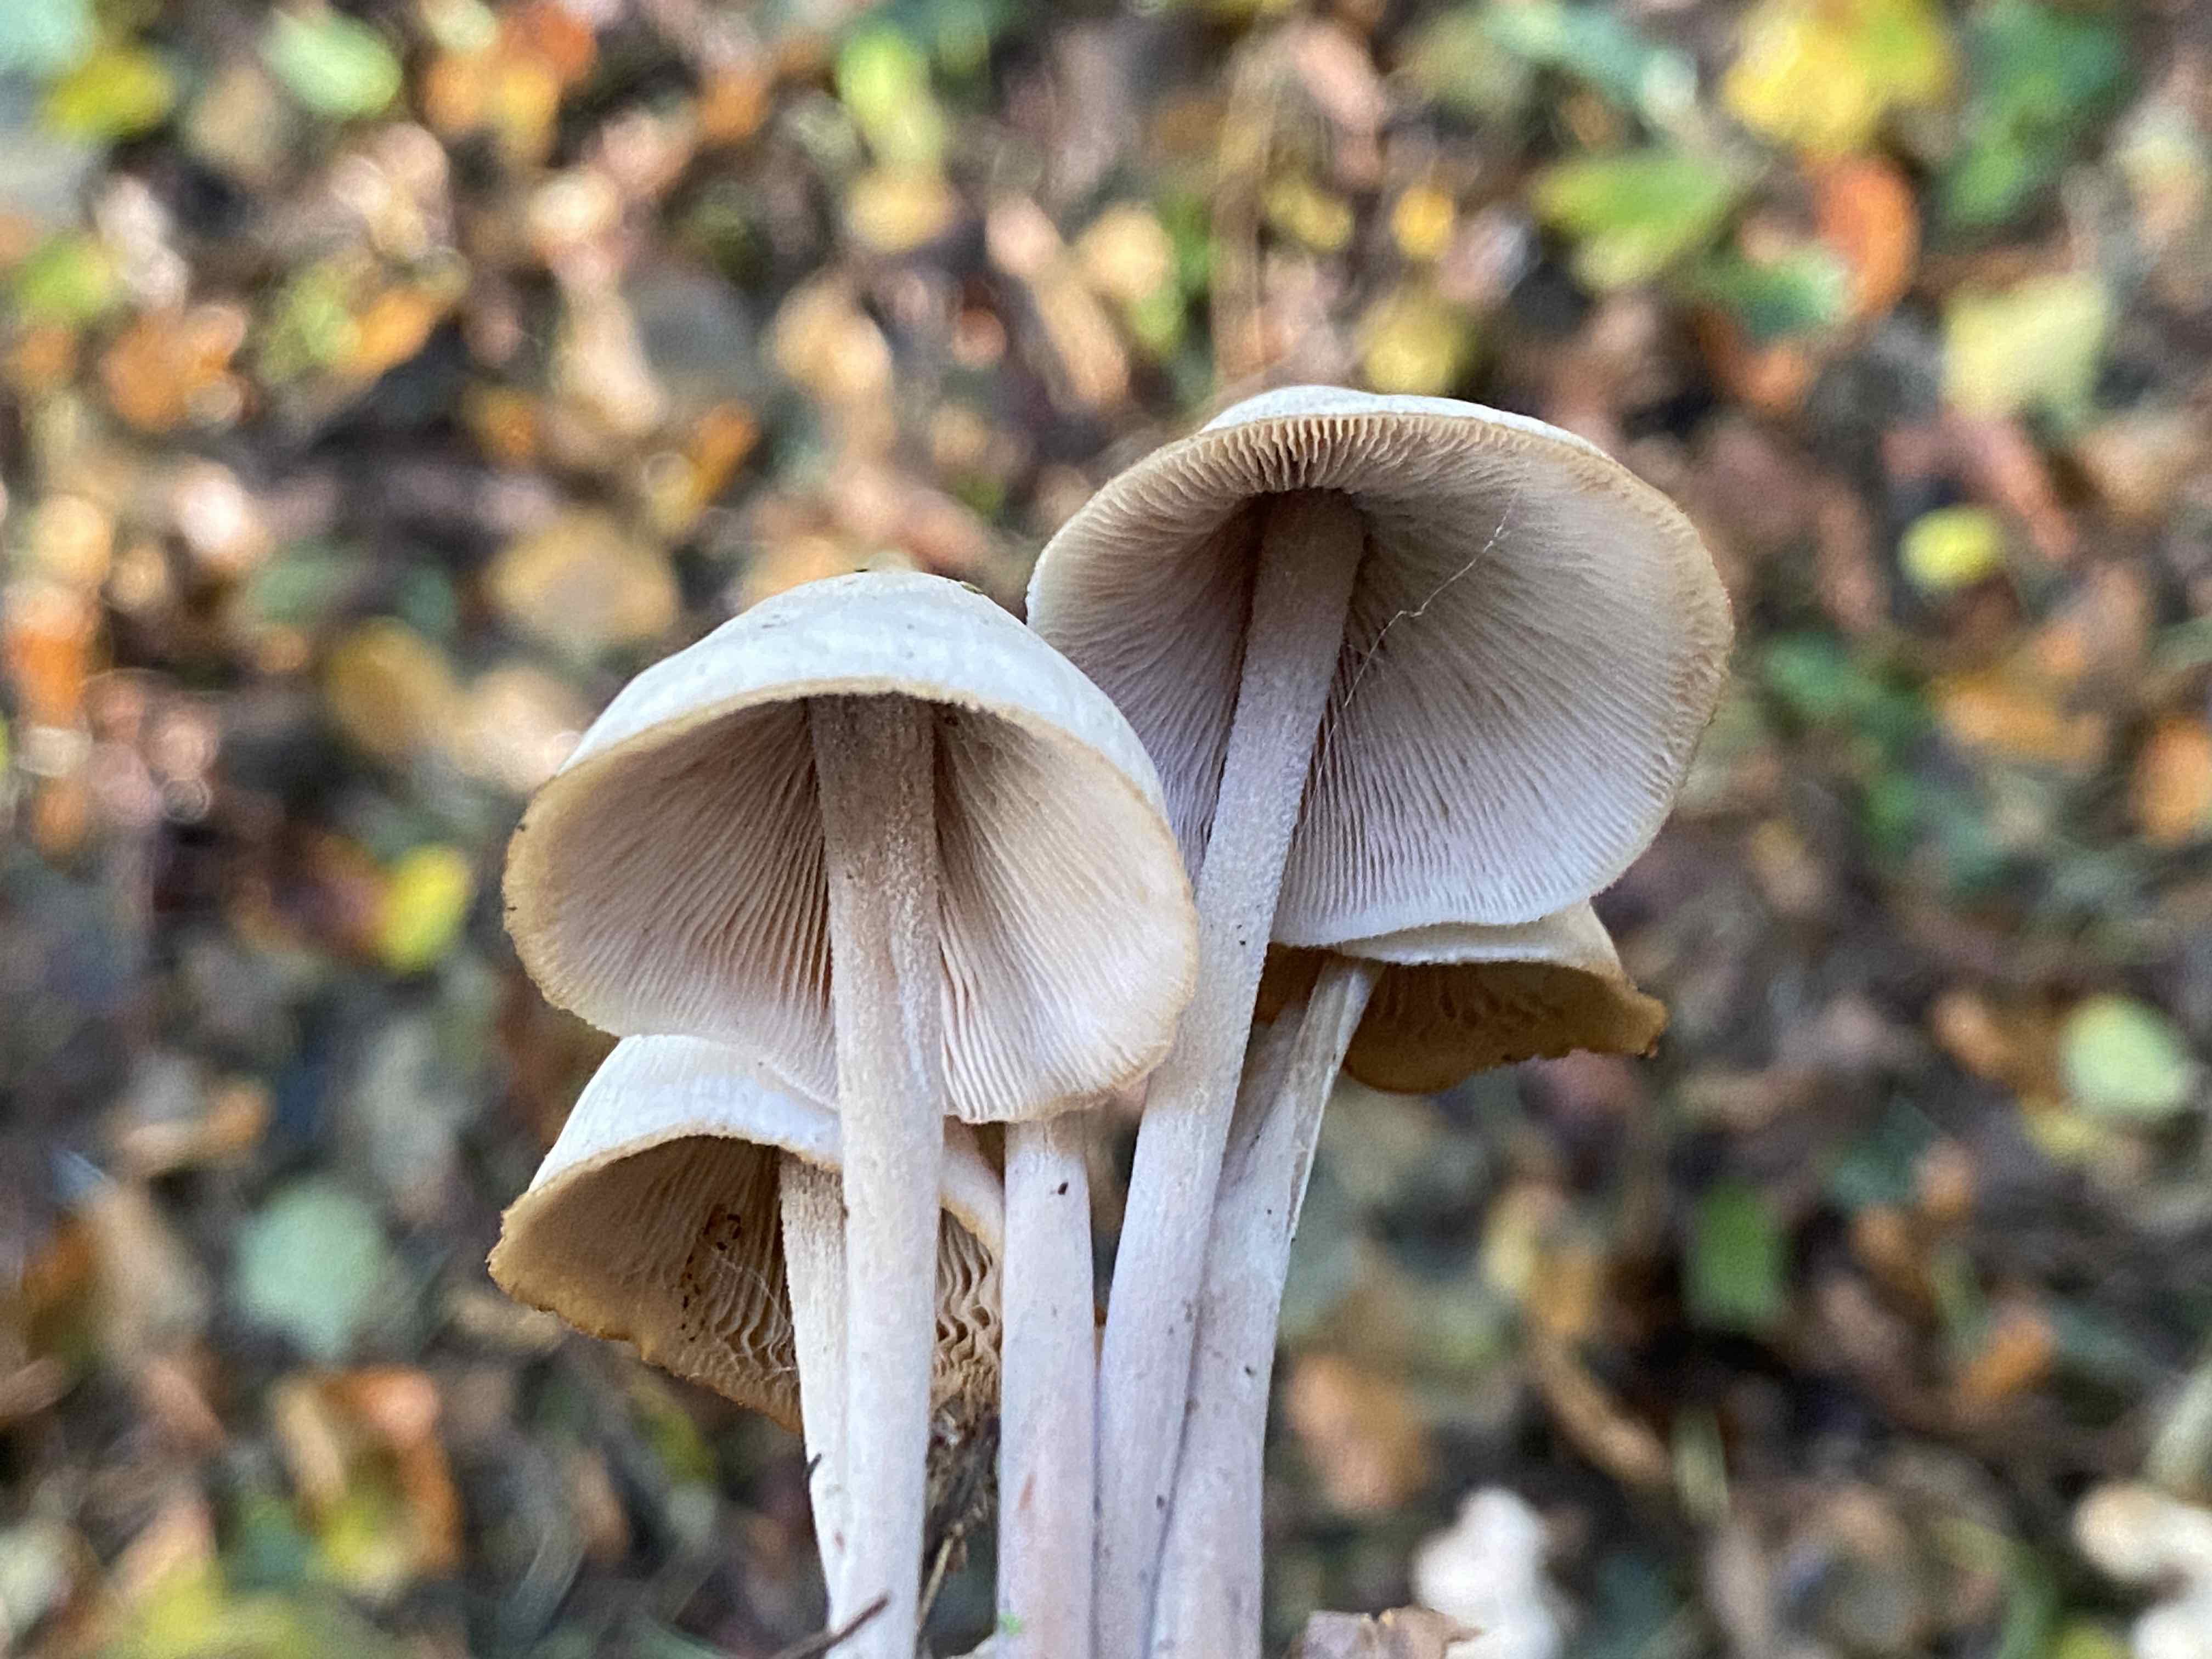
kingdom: Fungi
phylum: Basidiomycota
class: Agaricomycetes
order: Agaricales
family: Omphalotaceae
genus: Collybiopsis
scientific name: Collybiopsis confluens
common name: knippe-fladhat
